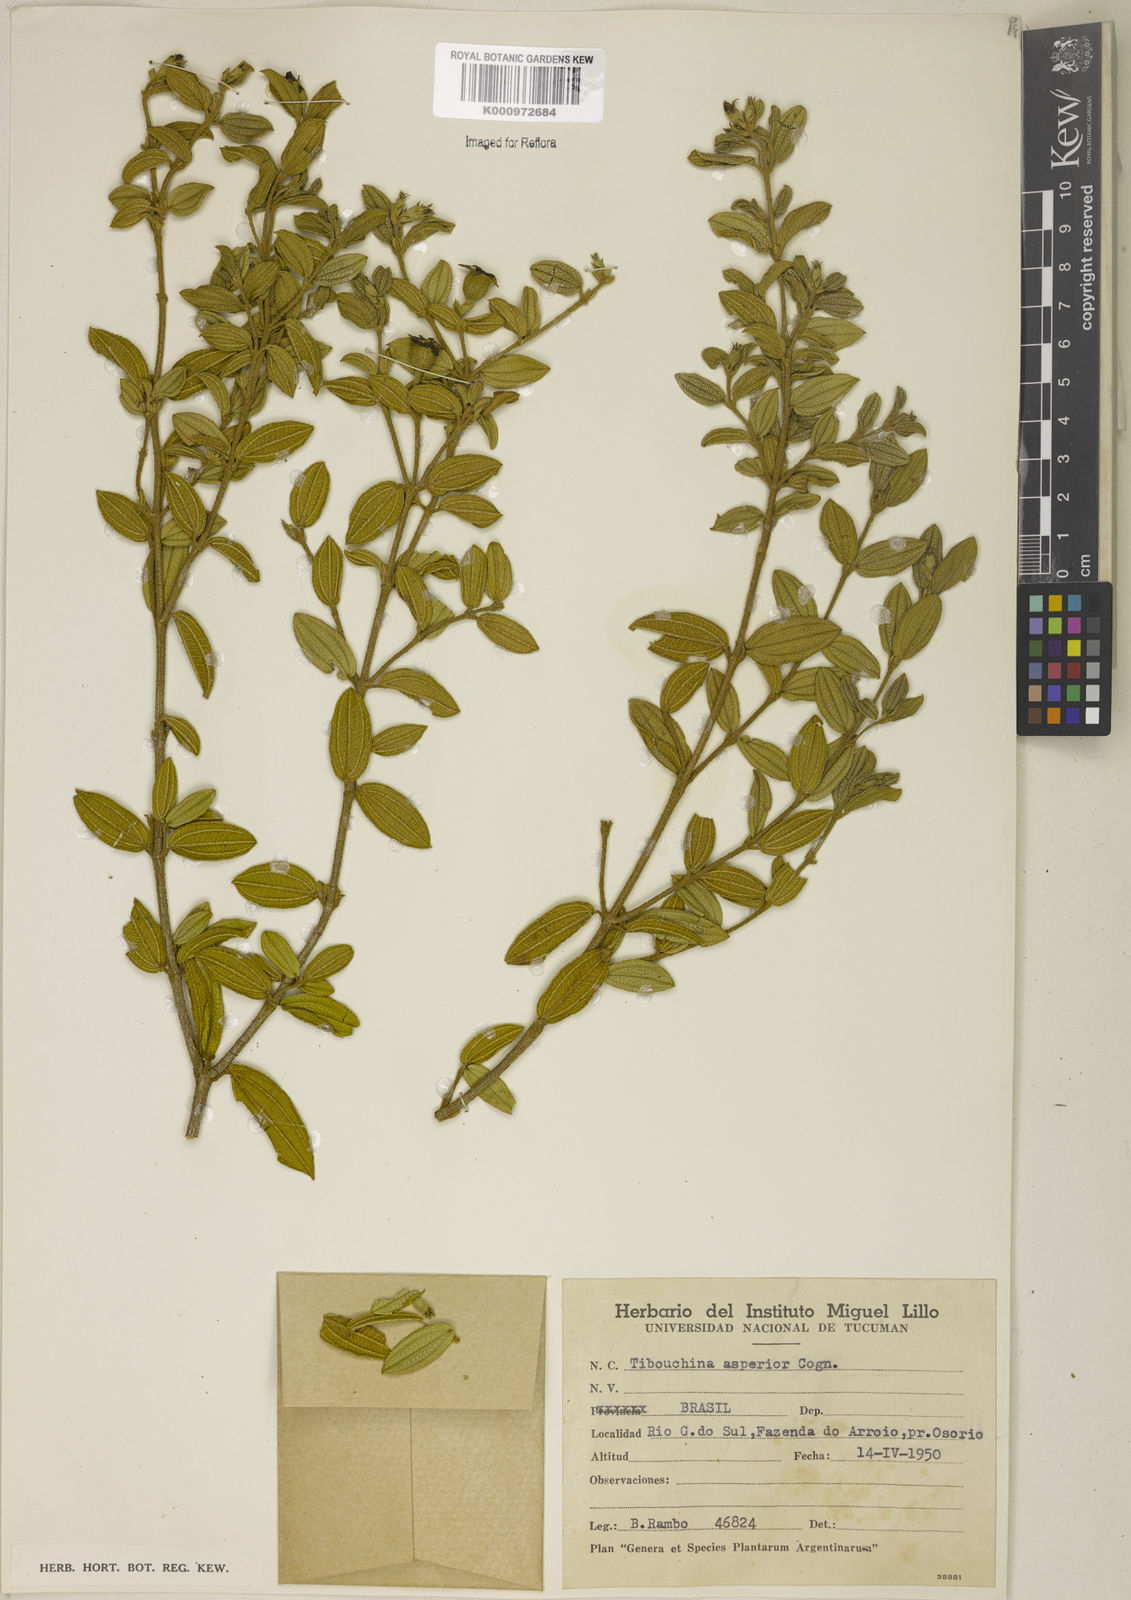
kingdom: Plantae
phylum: Tracheophyta
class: Magnoliopsida
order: Myrtales
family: Melastomataceae
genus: Pleroma
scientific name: Pleroma asperius
